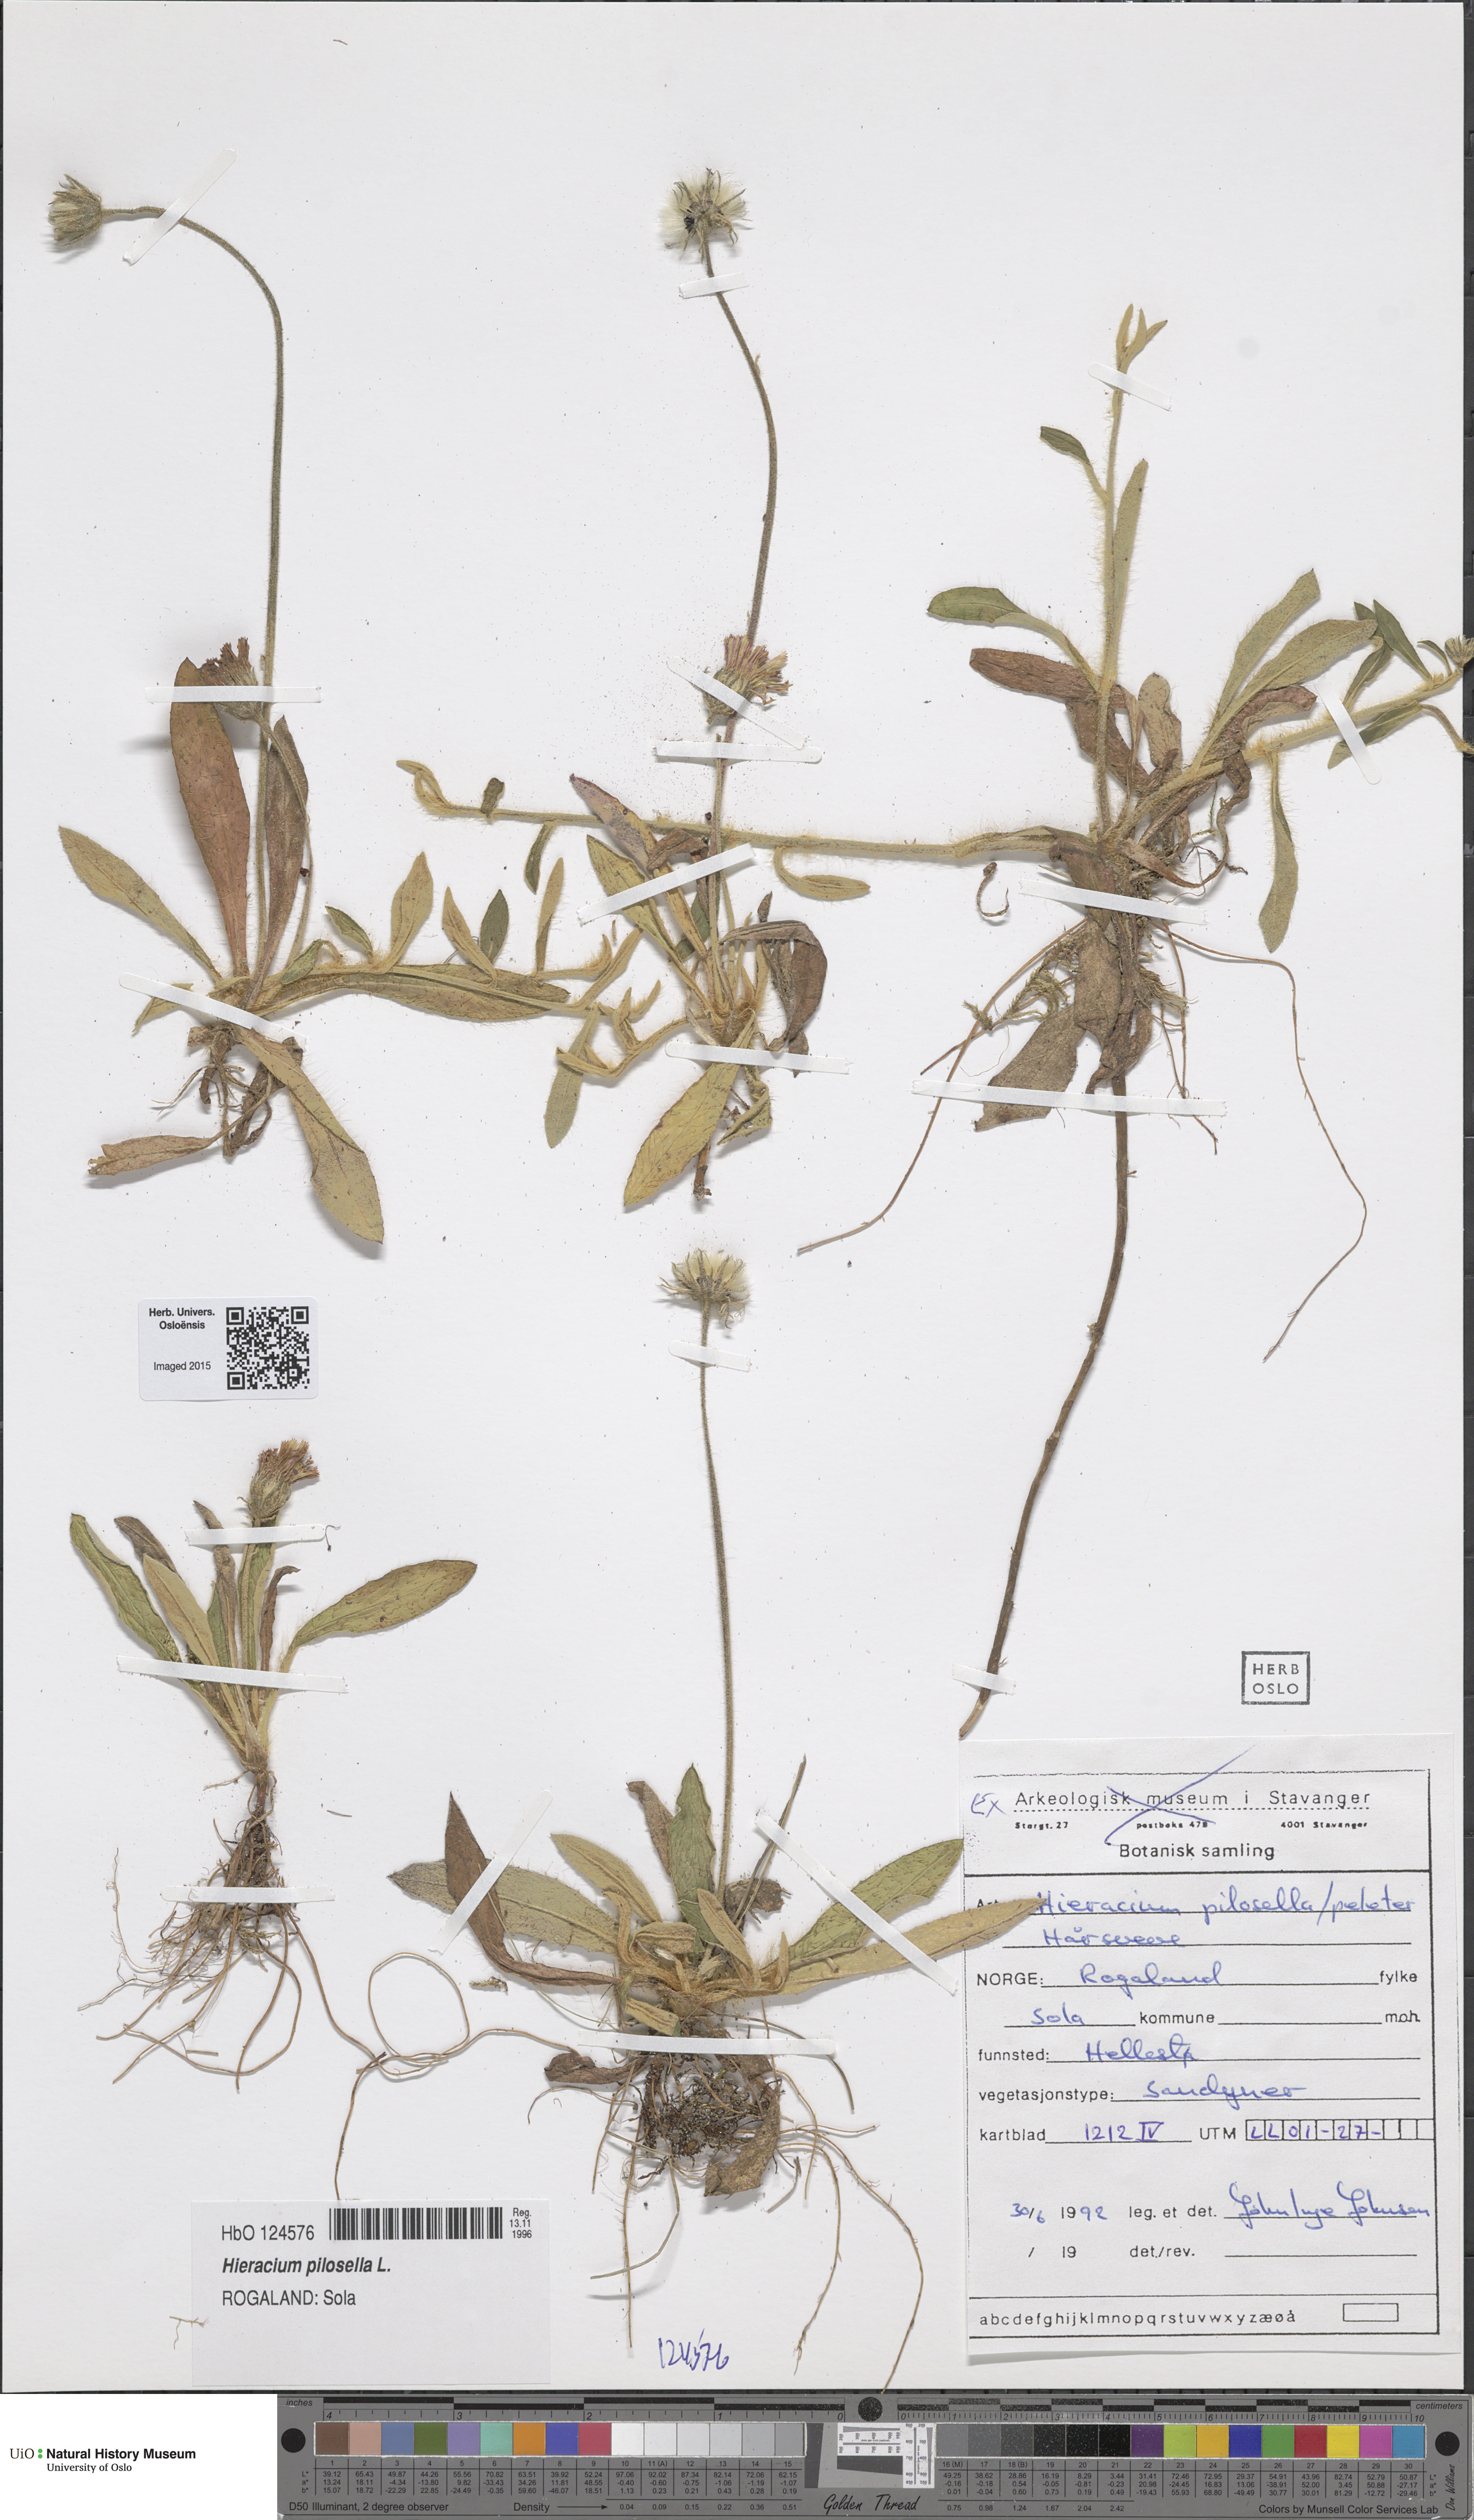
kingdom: Plantae
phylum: Tracheophyta
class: Magnoliopsida
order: Asterales
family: Asteraceae
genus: Pilosella
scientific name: Pilosella officinarum
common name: Mouse-ear hawkweed
